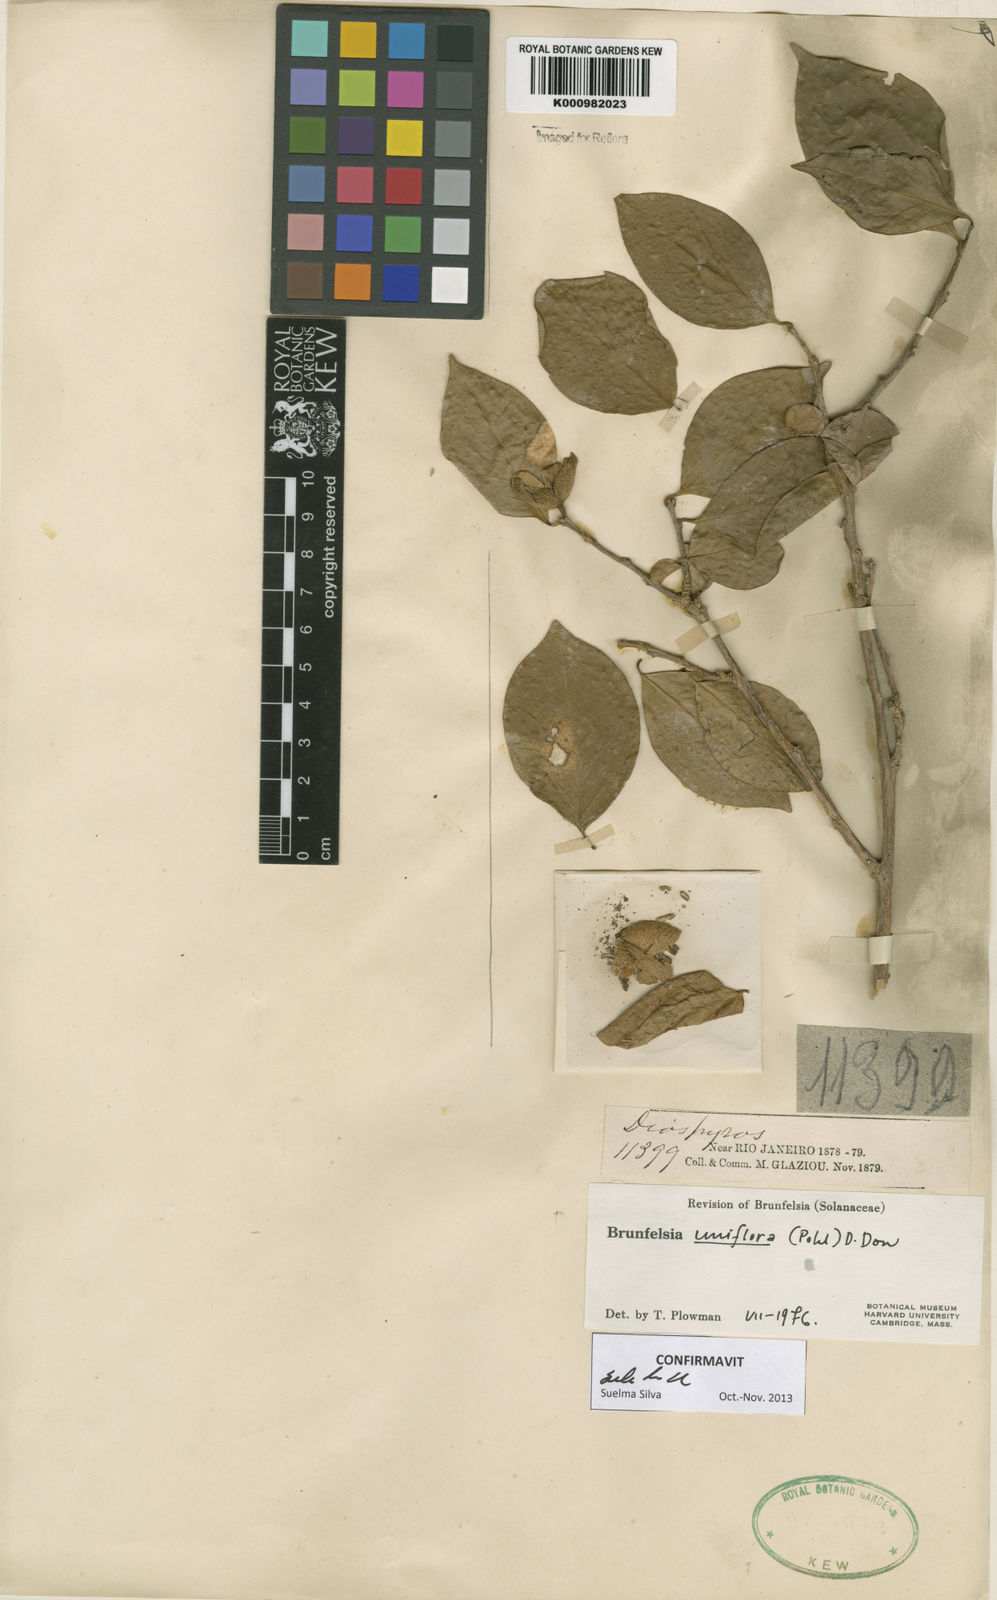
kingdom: Plantae
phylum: Tracheophyta
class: Magnoliopsida
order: Solanales
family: Solanaceae
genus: Brunfelsia
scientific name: Brunfelsia uniflora
